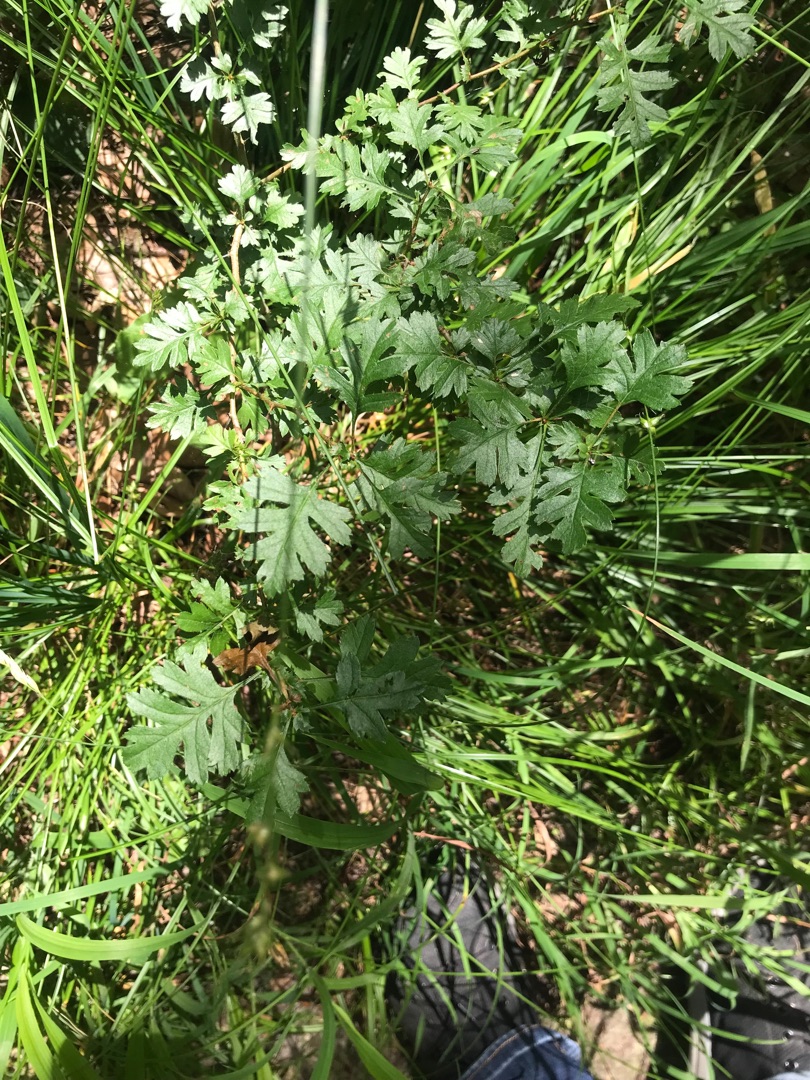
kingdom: Plantae
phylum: Tracheophyta
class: Magnoliopsida
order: Rosales
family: Rosaceae
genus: Crataegus
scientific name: Crataegus monogyna
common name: Engriflet hvidtjørn
